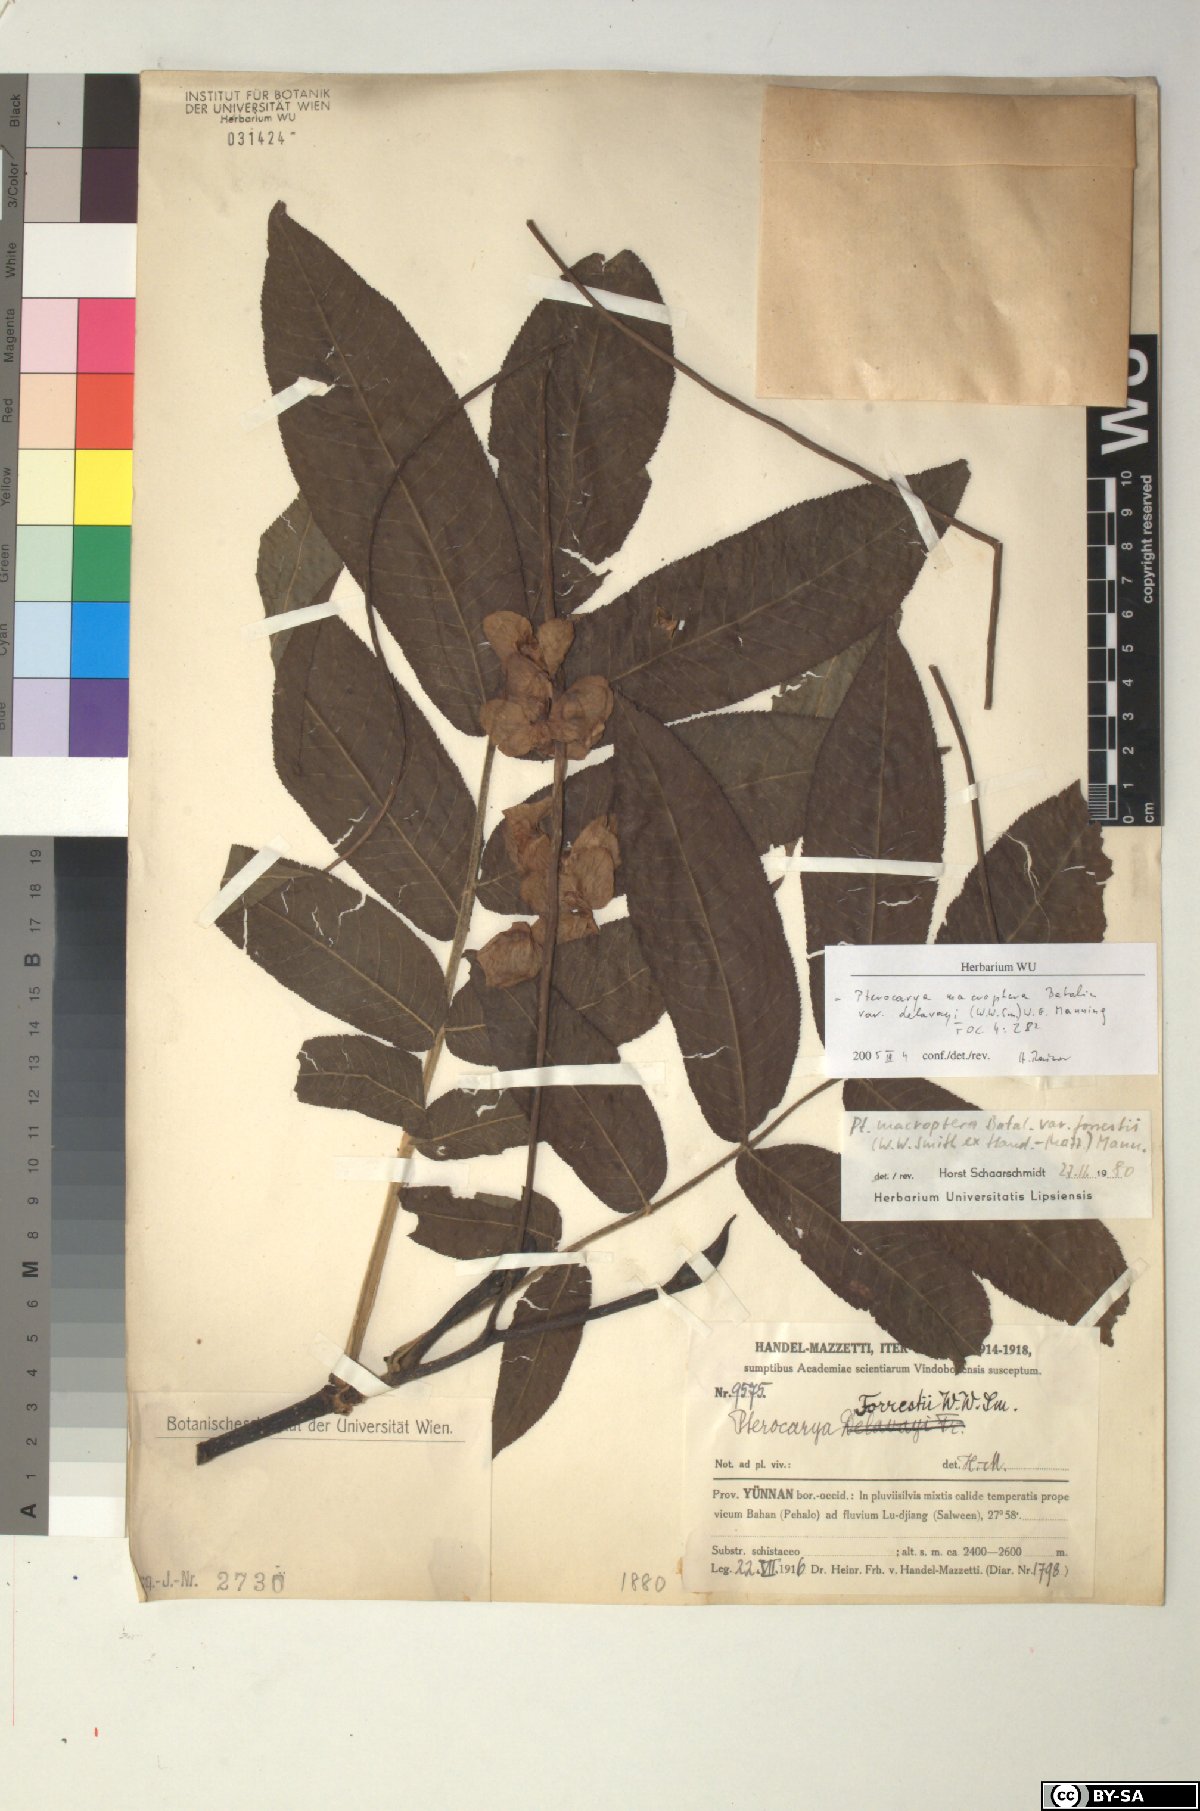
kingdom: Plantae
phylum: Tracheophyta
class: Magnoliopsida
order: Fagales
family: Juglandaceae
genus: Pterocarya
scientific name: Pterocarya macroptera
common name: Large-winged wingnut
